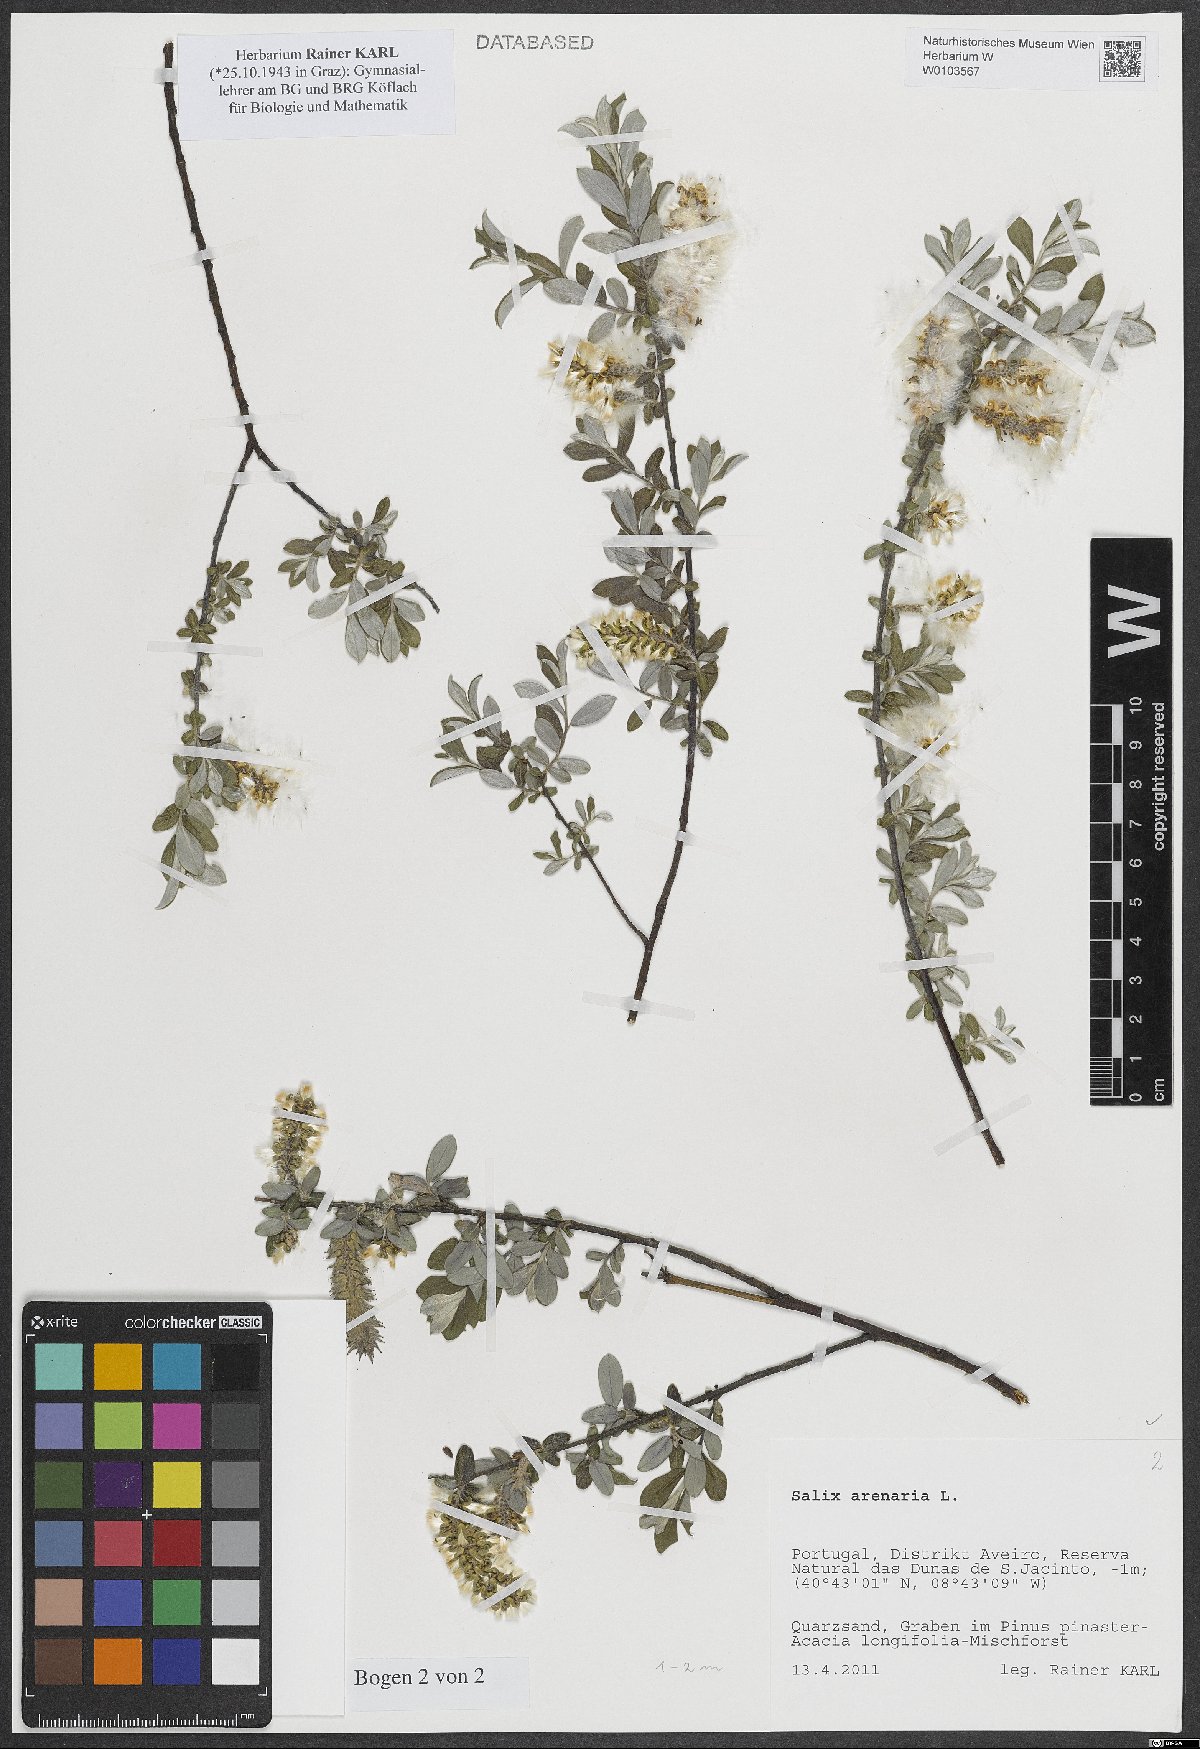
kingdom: Plantae
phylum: Tracheophyta
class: Magnoliopsida
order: Malpighiales
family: Salicaceae
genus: Salix
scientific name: Salix repens
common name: Creeping willow
